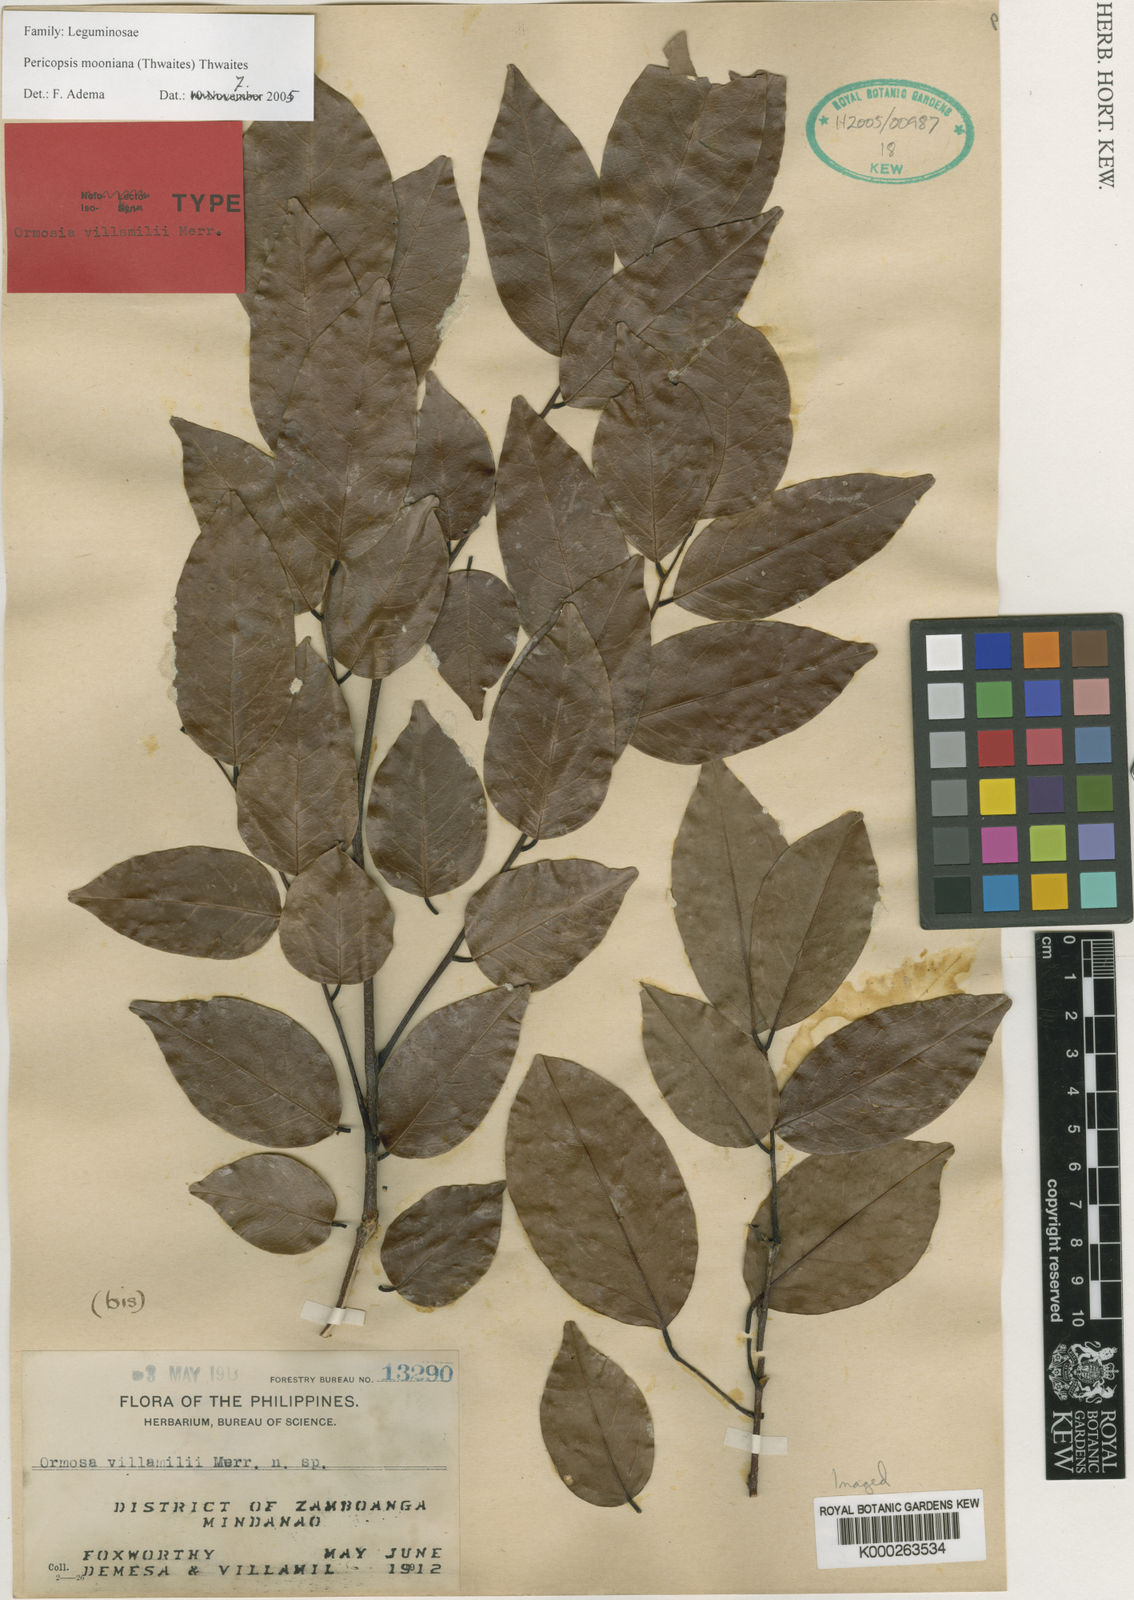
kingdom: Plantae
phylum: Tracheophyta
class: Magnoliopsida
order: Fabales
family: Fabaceae
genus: Pericopsis
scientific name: Pericopsis
